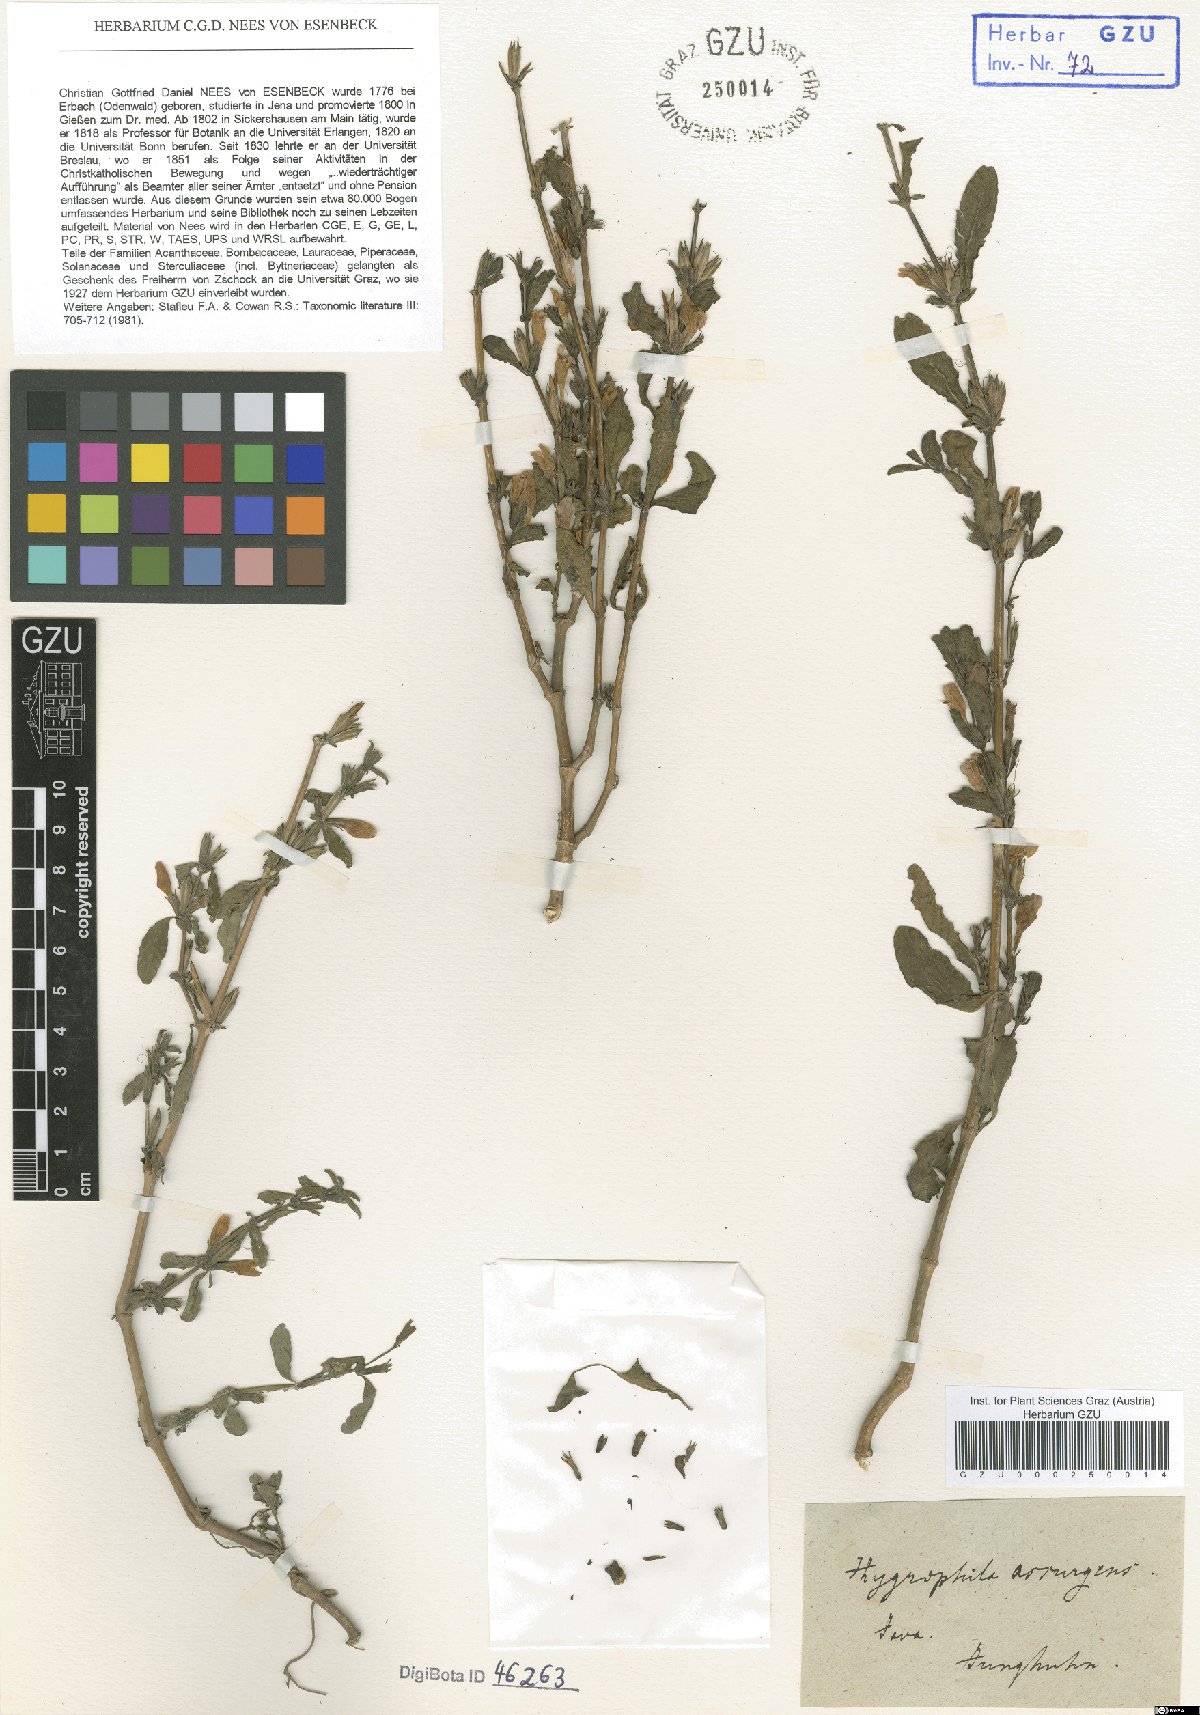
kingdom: Plantae
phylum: Tracheophyta
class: Magnoliopsida
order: Lamiales
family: Acanthaceae
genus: Hygrophila
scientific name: Hygrophila ringens
